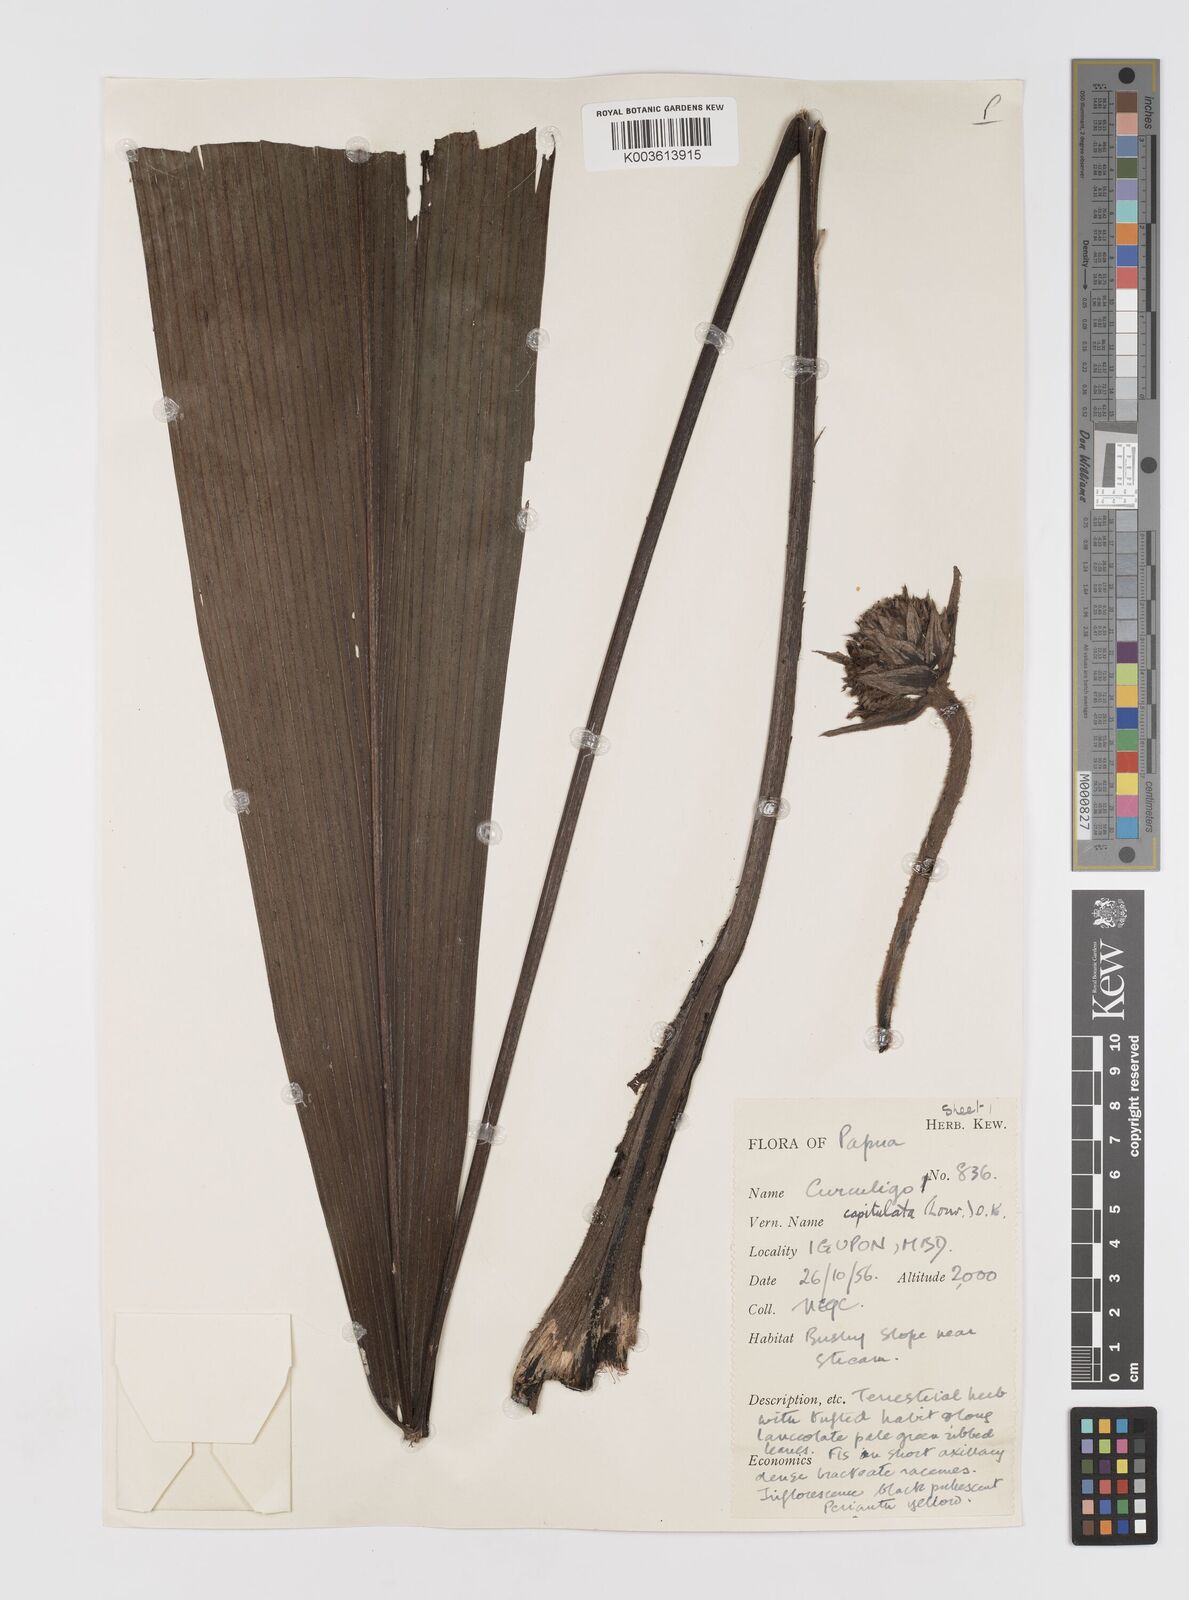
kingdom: Plantae
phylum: Tracheophyta
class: Liliopsida
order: Asparagales
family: Hypoxidaceae
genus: Curculigo
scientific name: Curculigo capitulata
